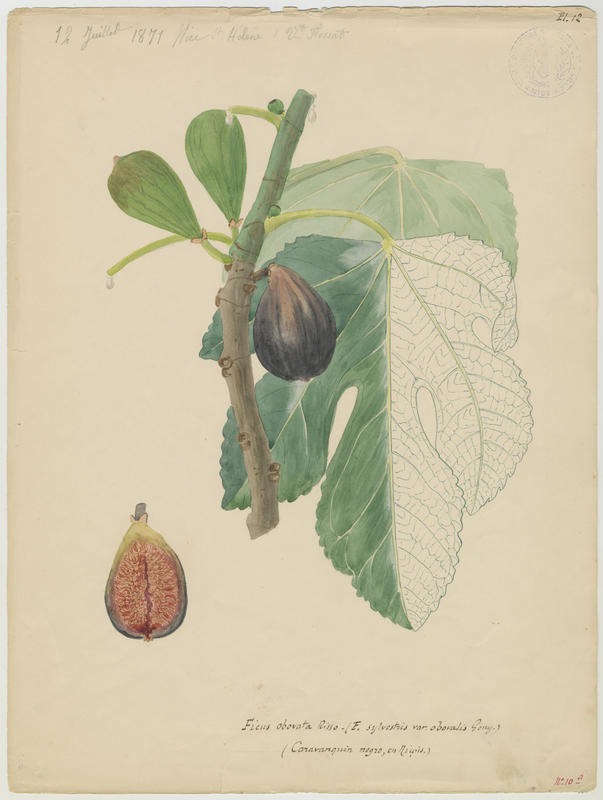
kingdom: Plantae
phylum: Tracheophyta
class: Magnoliopsida
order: Rosales
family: Moraceae
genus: Ficus
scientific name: Ficus carica
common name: Fig
